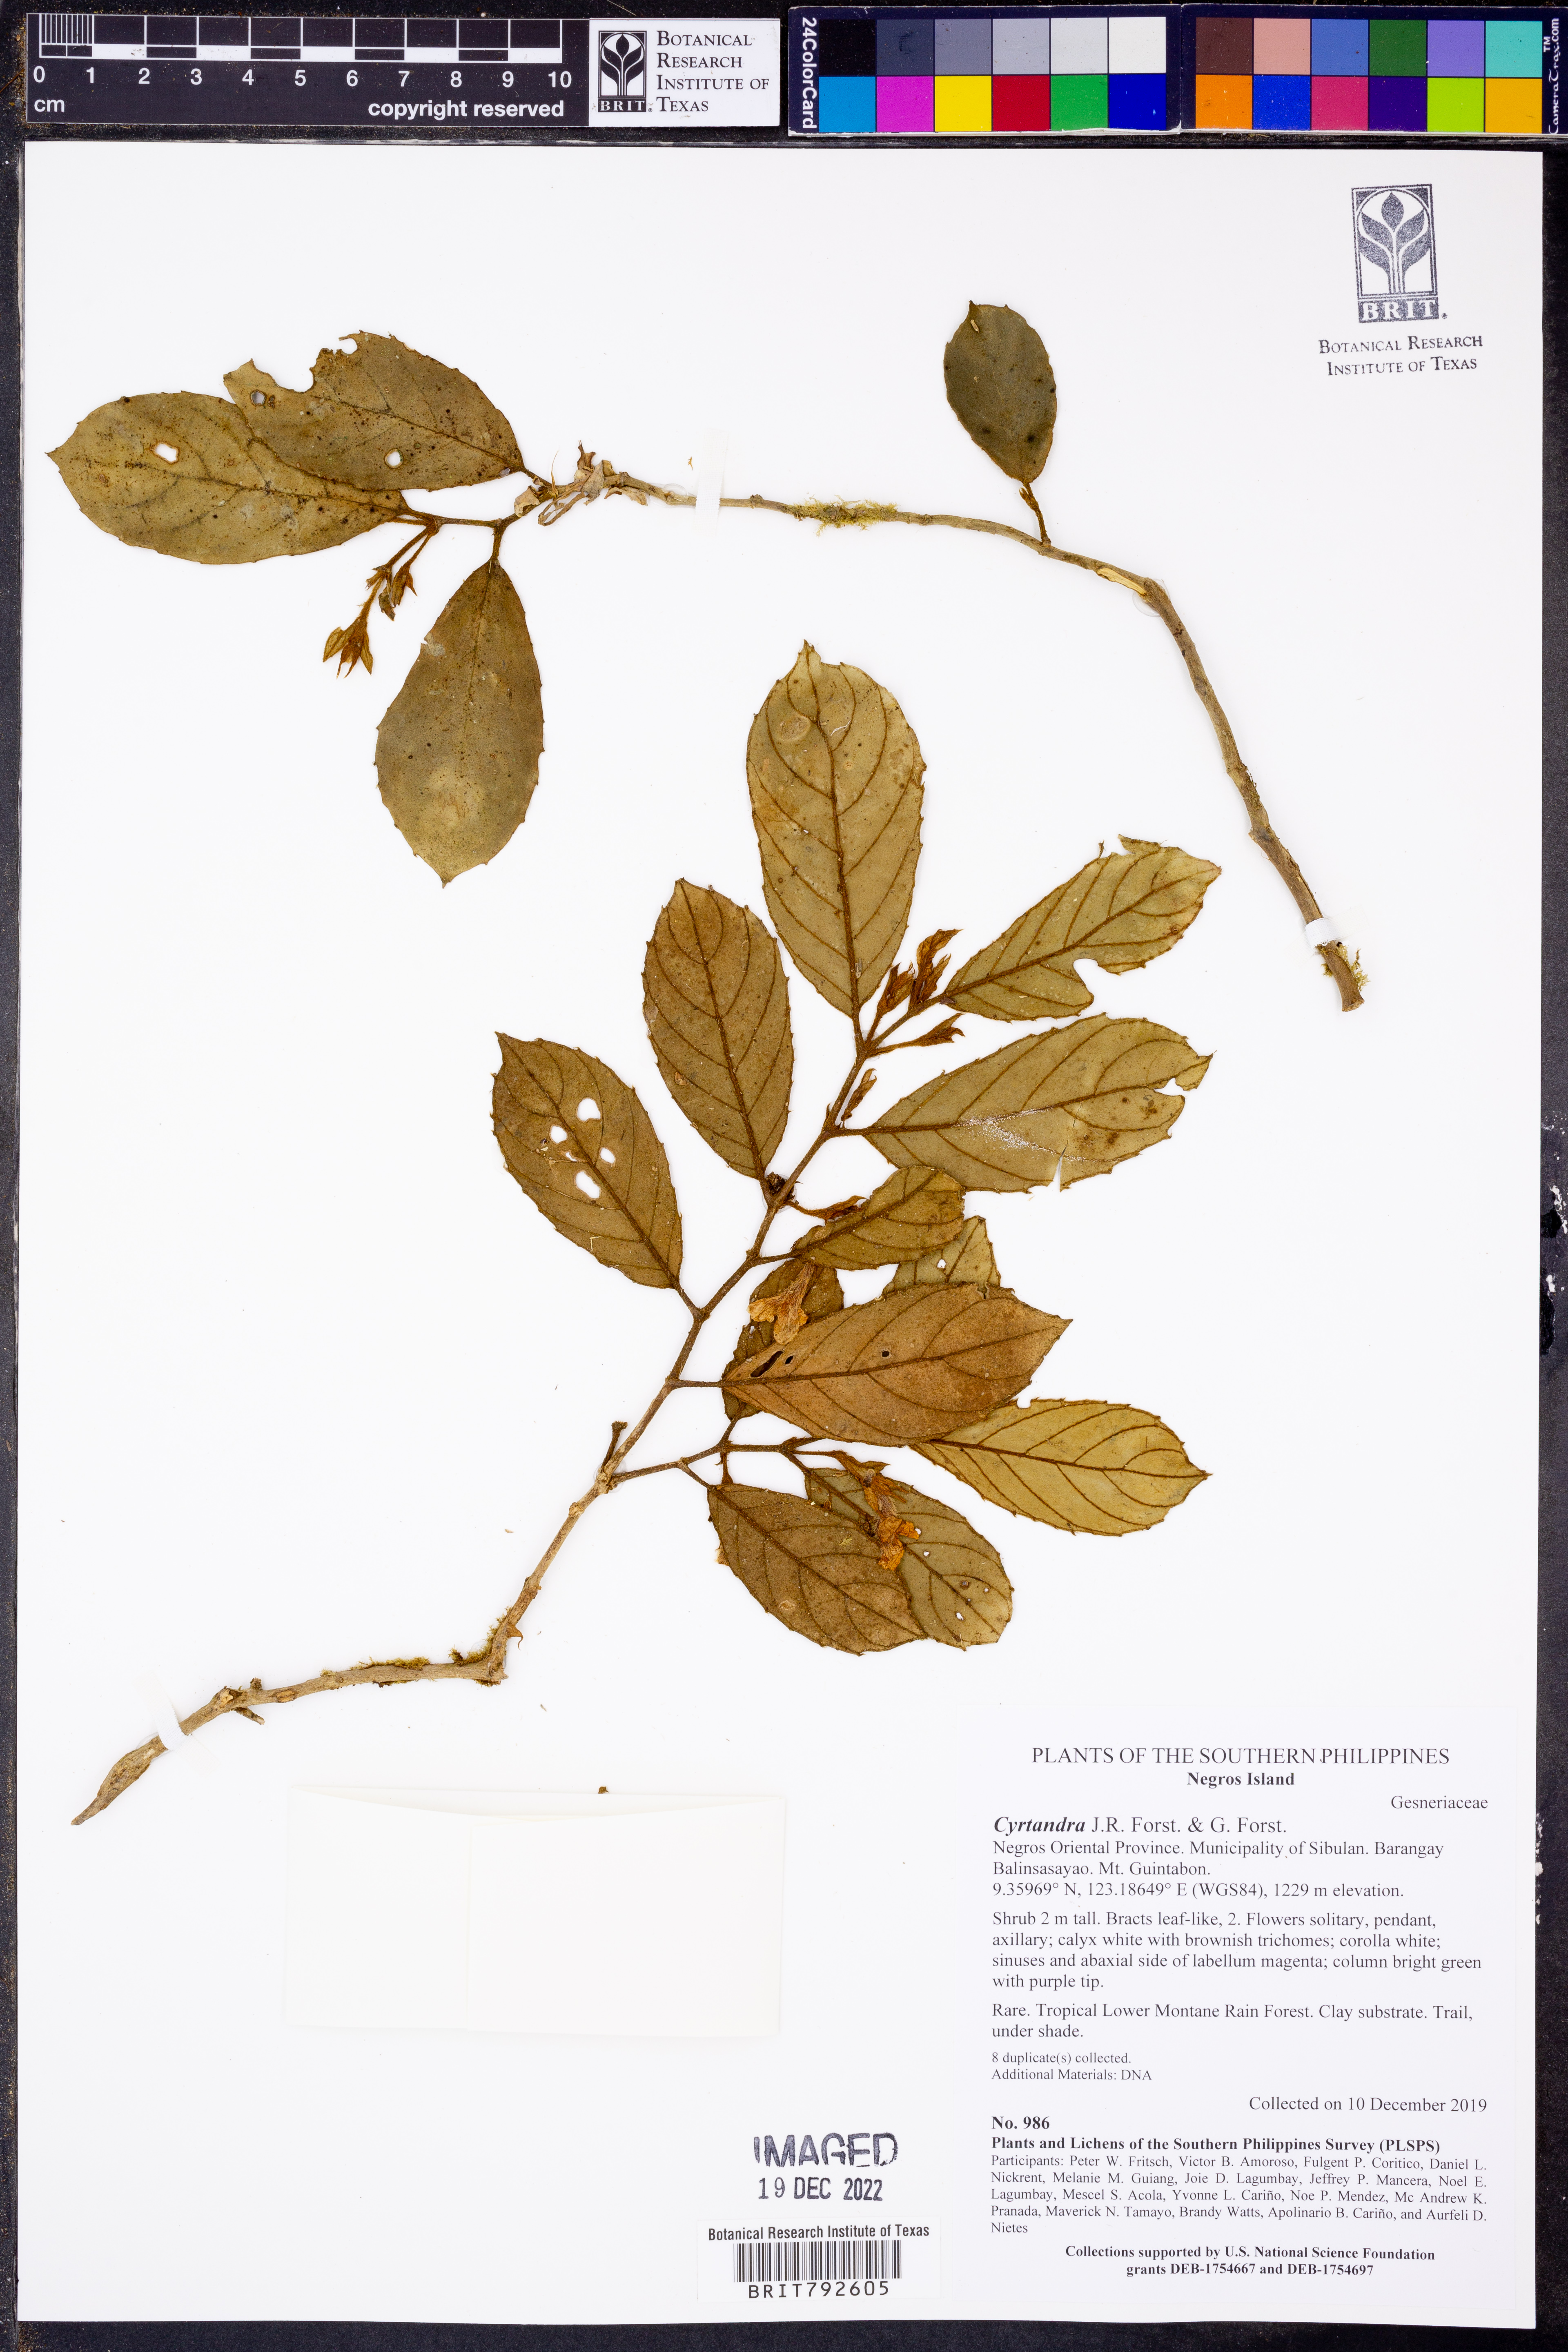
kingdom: Plantae
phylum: Tracheophyta
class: Magnoliopsida
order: Lamiales
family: Gesneriaceae
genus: Cyrtandra
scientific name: Cyrtandra
